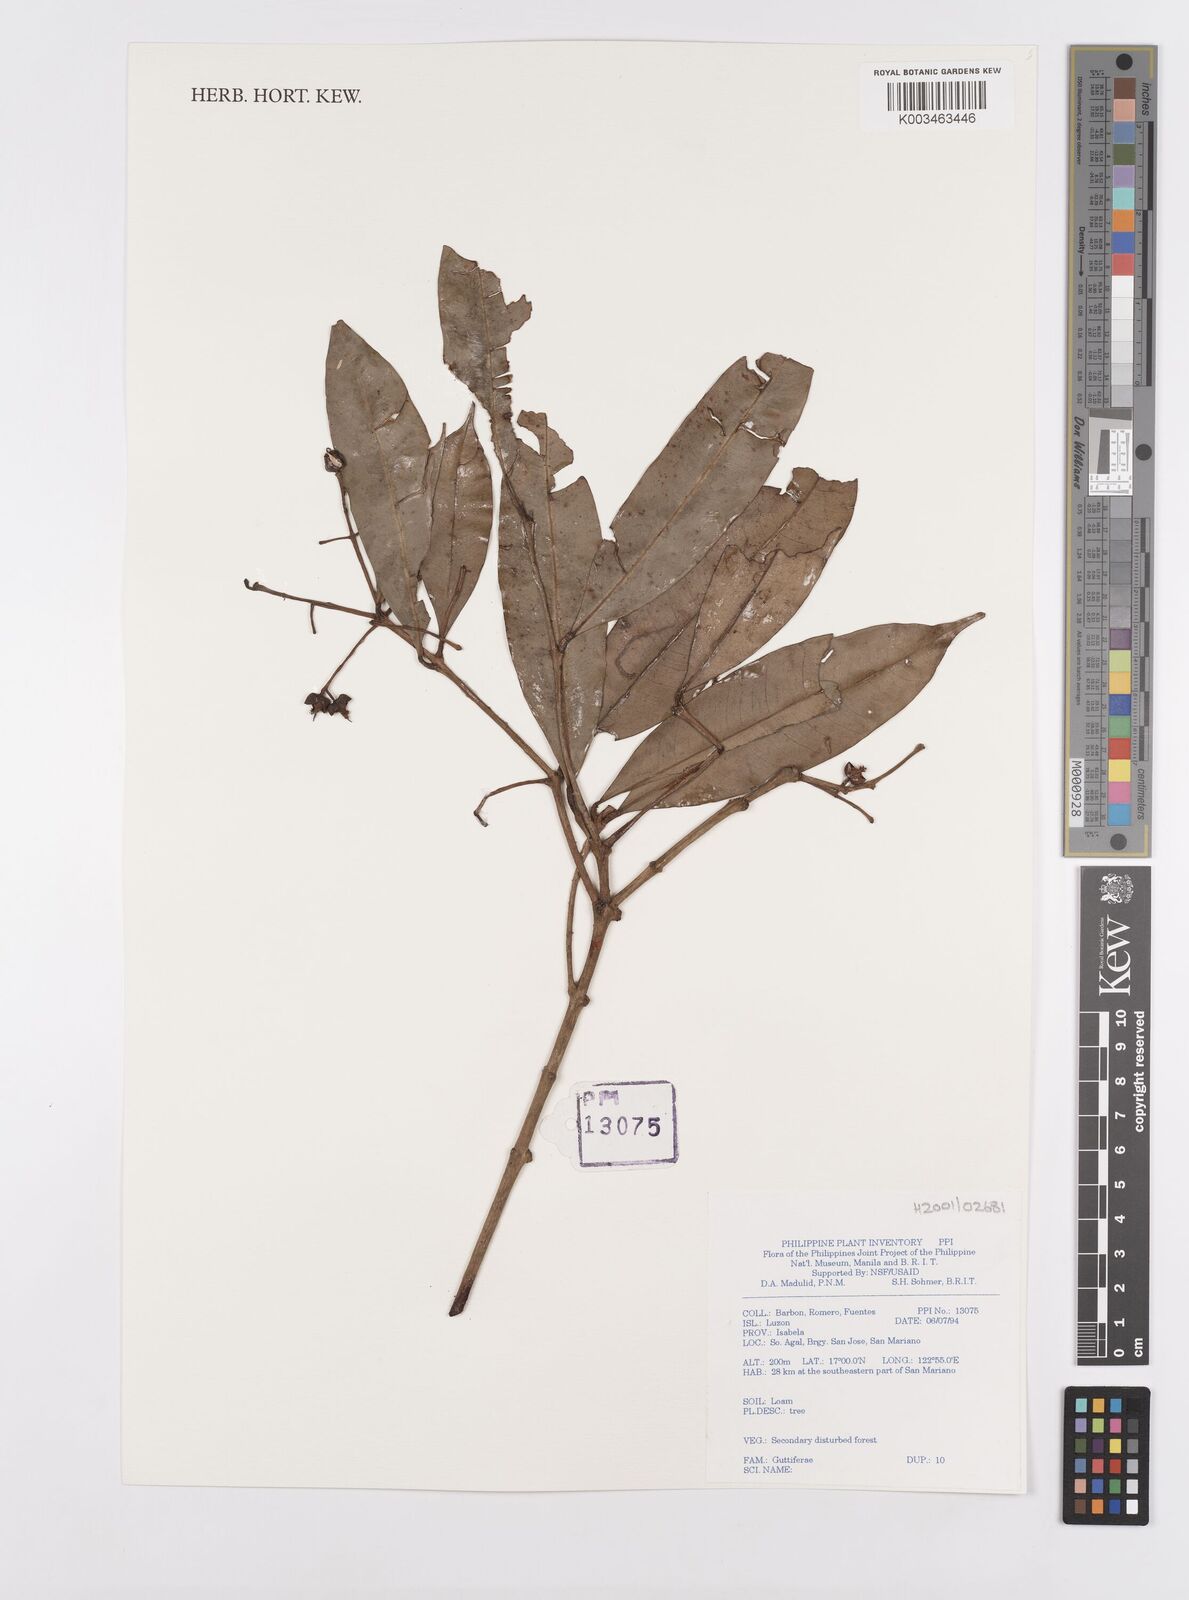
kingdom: Plantae
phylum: Tracheophyta
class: Magnoliopsida
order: Malpighiales
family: Calophyllaceae
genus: Kayea
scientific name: Kayea
